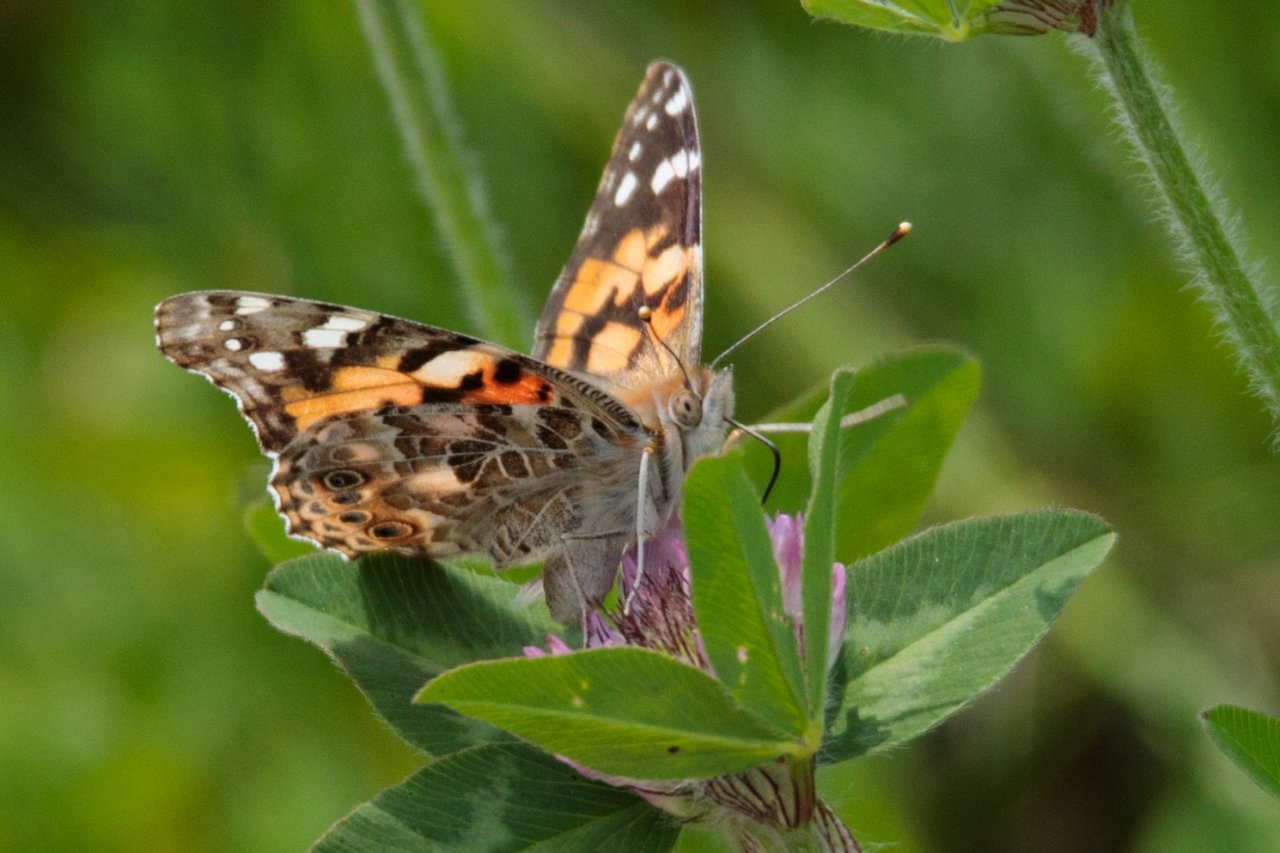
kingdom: Animalia
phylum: Arthropoda
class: Insecta
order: Lepidoptera
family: Nymphalidae
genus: Vanessa
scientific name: Vanessa cardui
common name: Painted Lady
